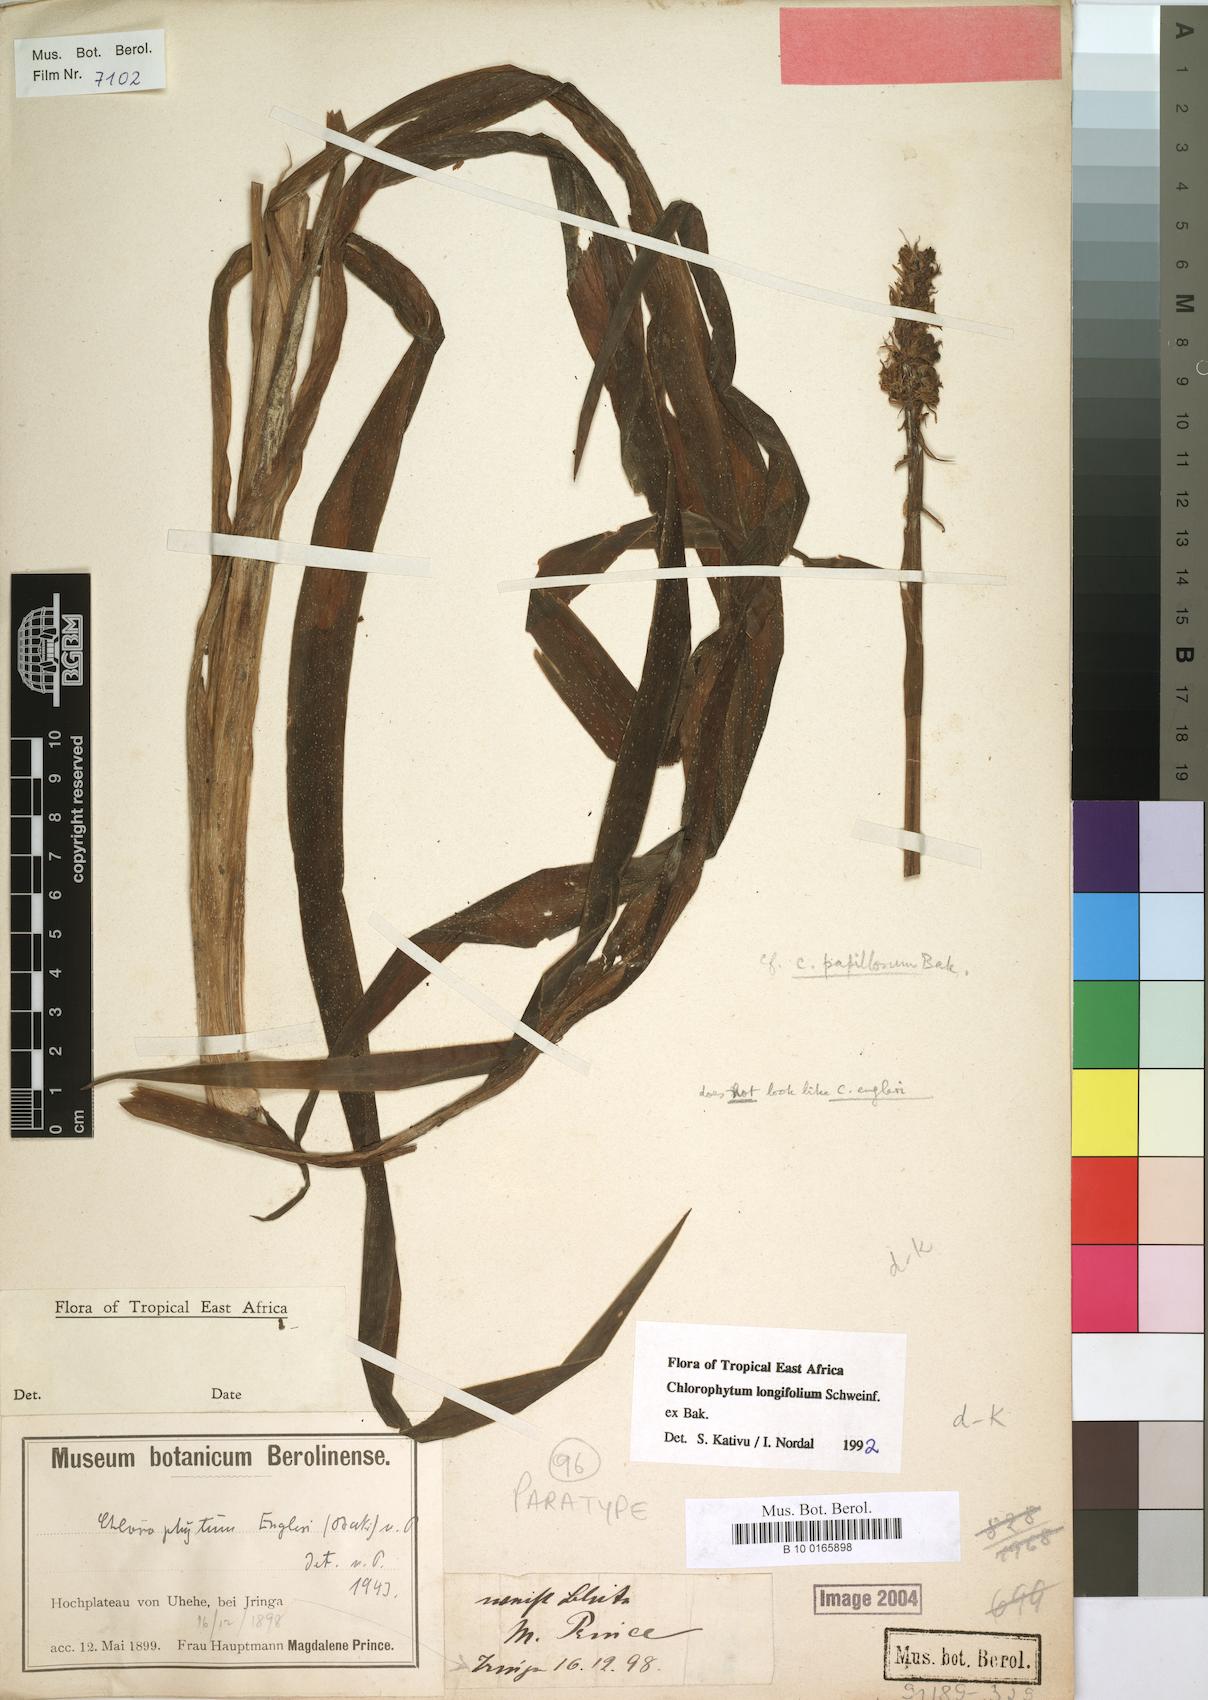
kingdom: Plantae
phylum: Tracheophyta
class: Liliopsida
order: Asparagales
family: Asparagaceae
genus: Chlorophytum
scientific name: Chlorophytum longifolium
